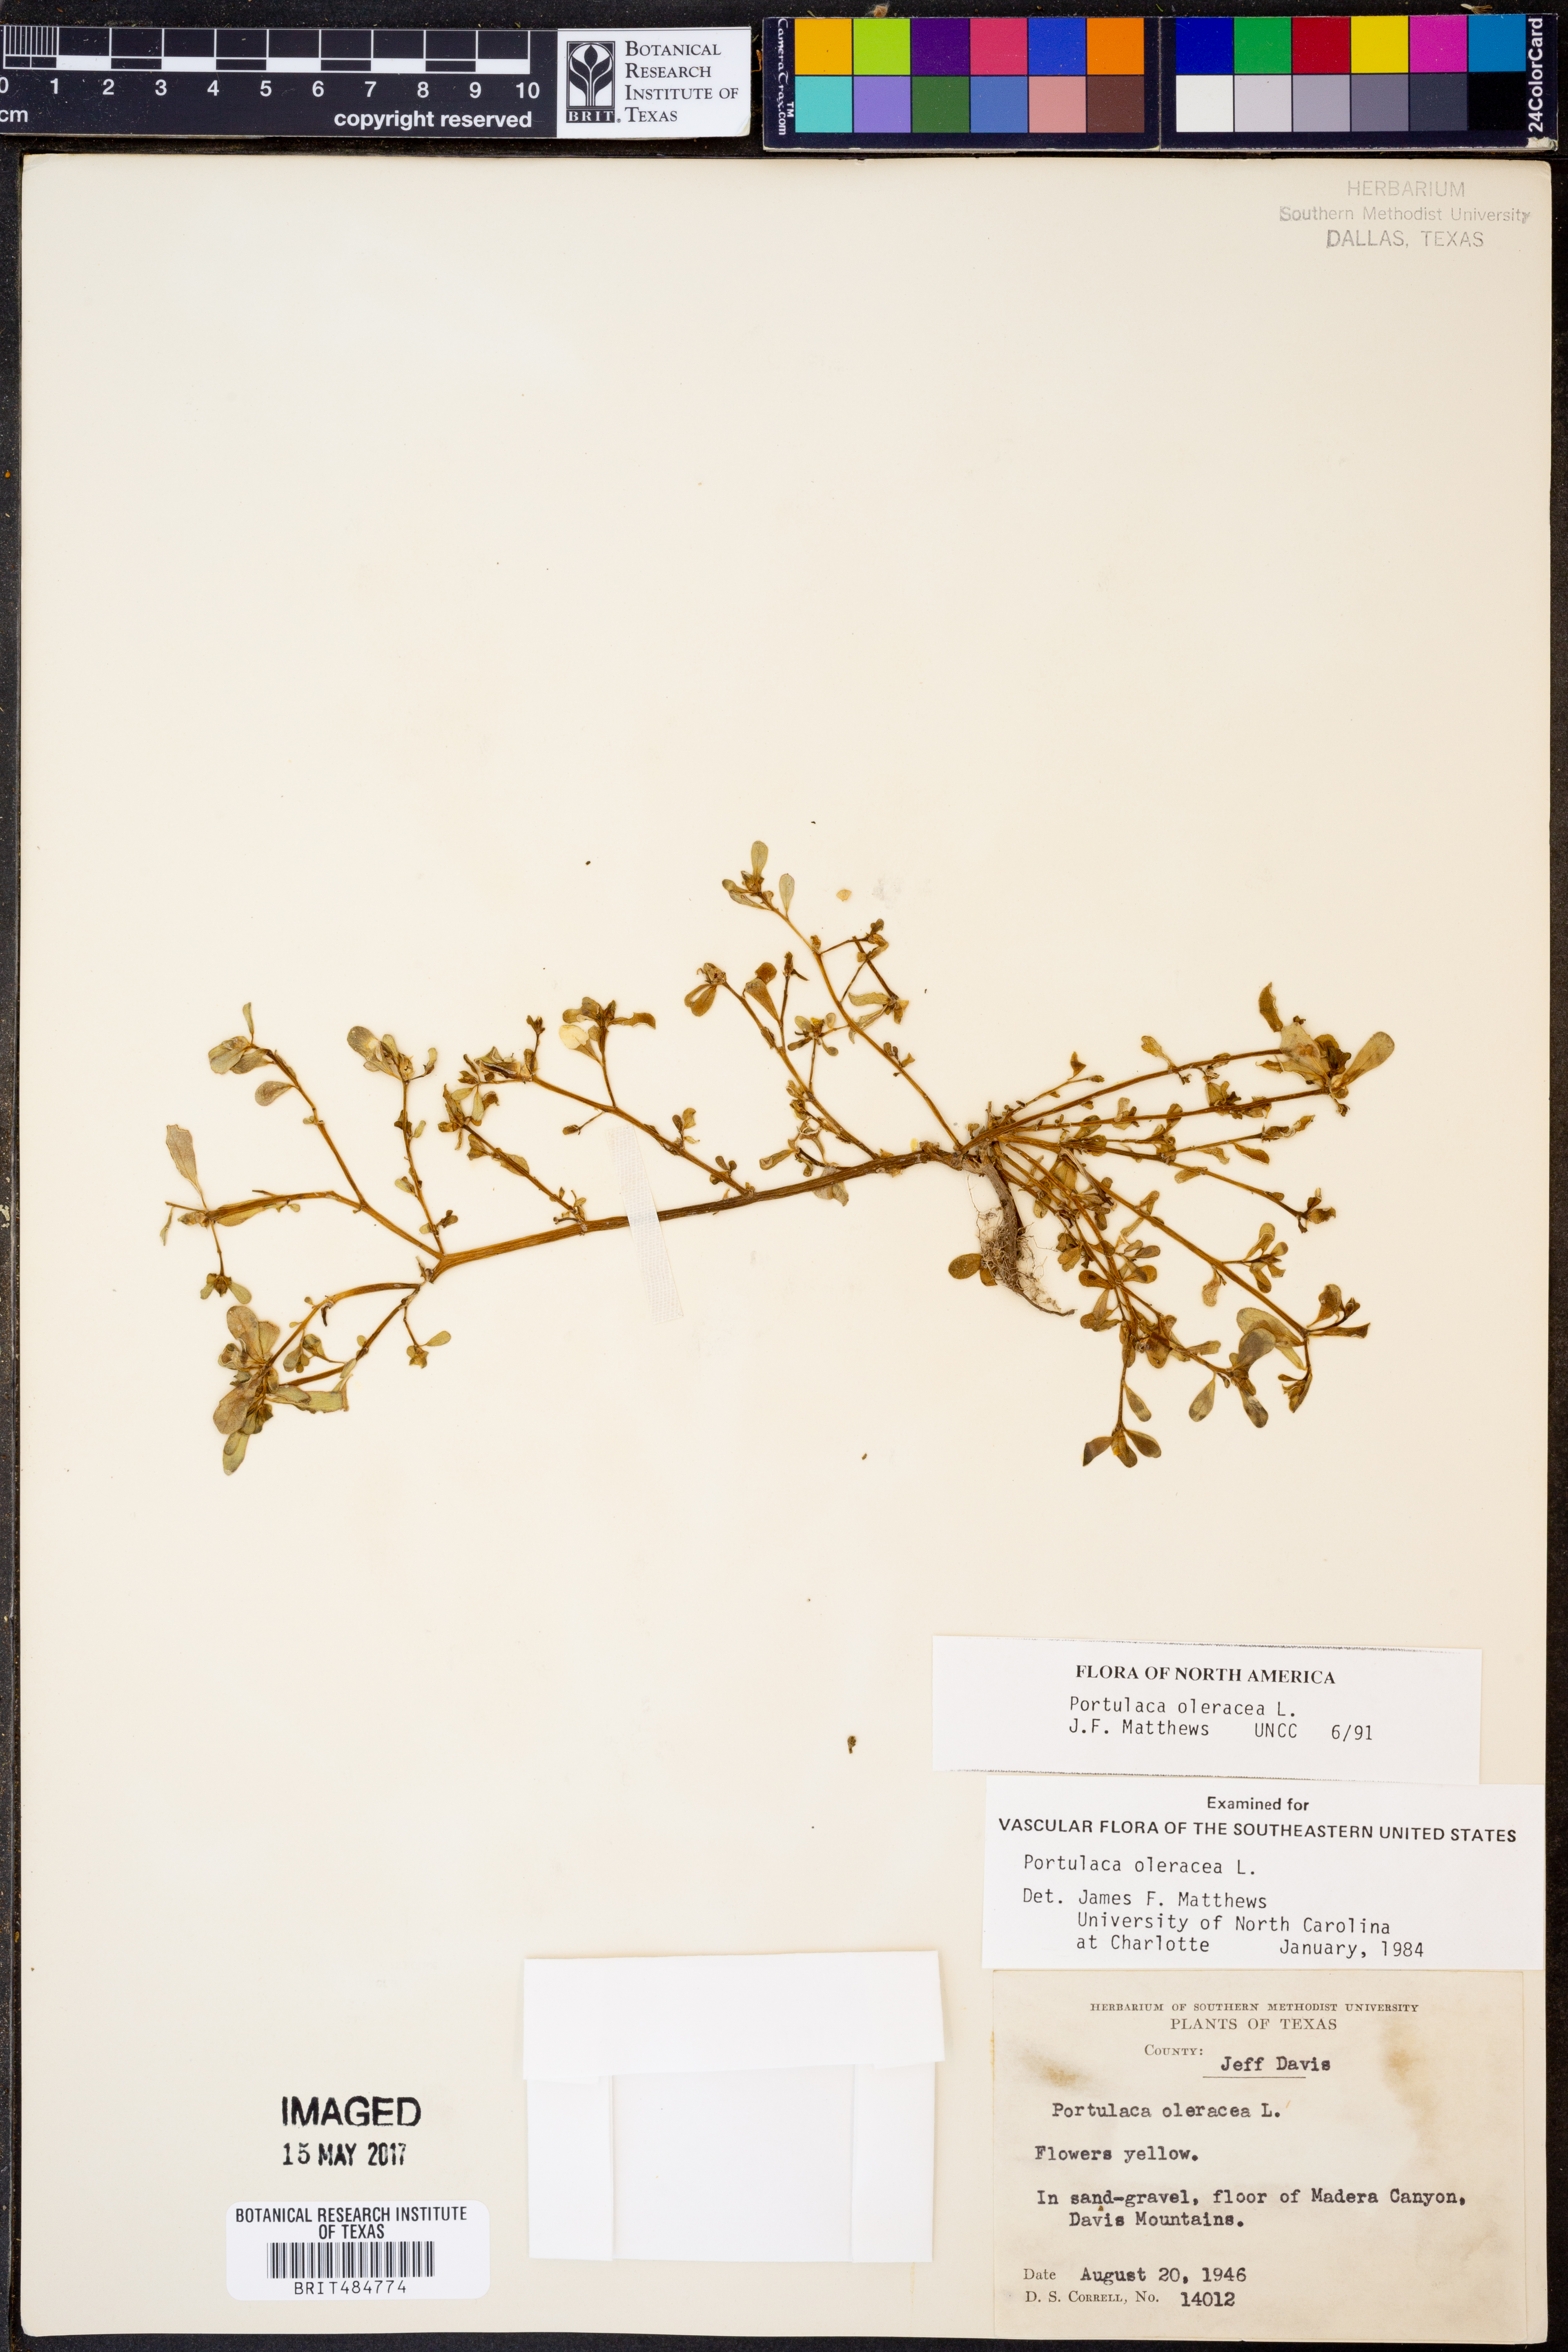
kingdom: Plantae
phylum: Tracheophyta
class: Magnoliopsida
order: Caryophyllales
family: Portulacaceae
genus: Portulaca
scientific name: Portulaca oleracea
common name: Common purslane
